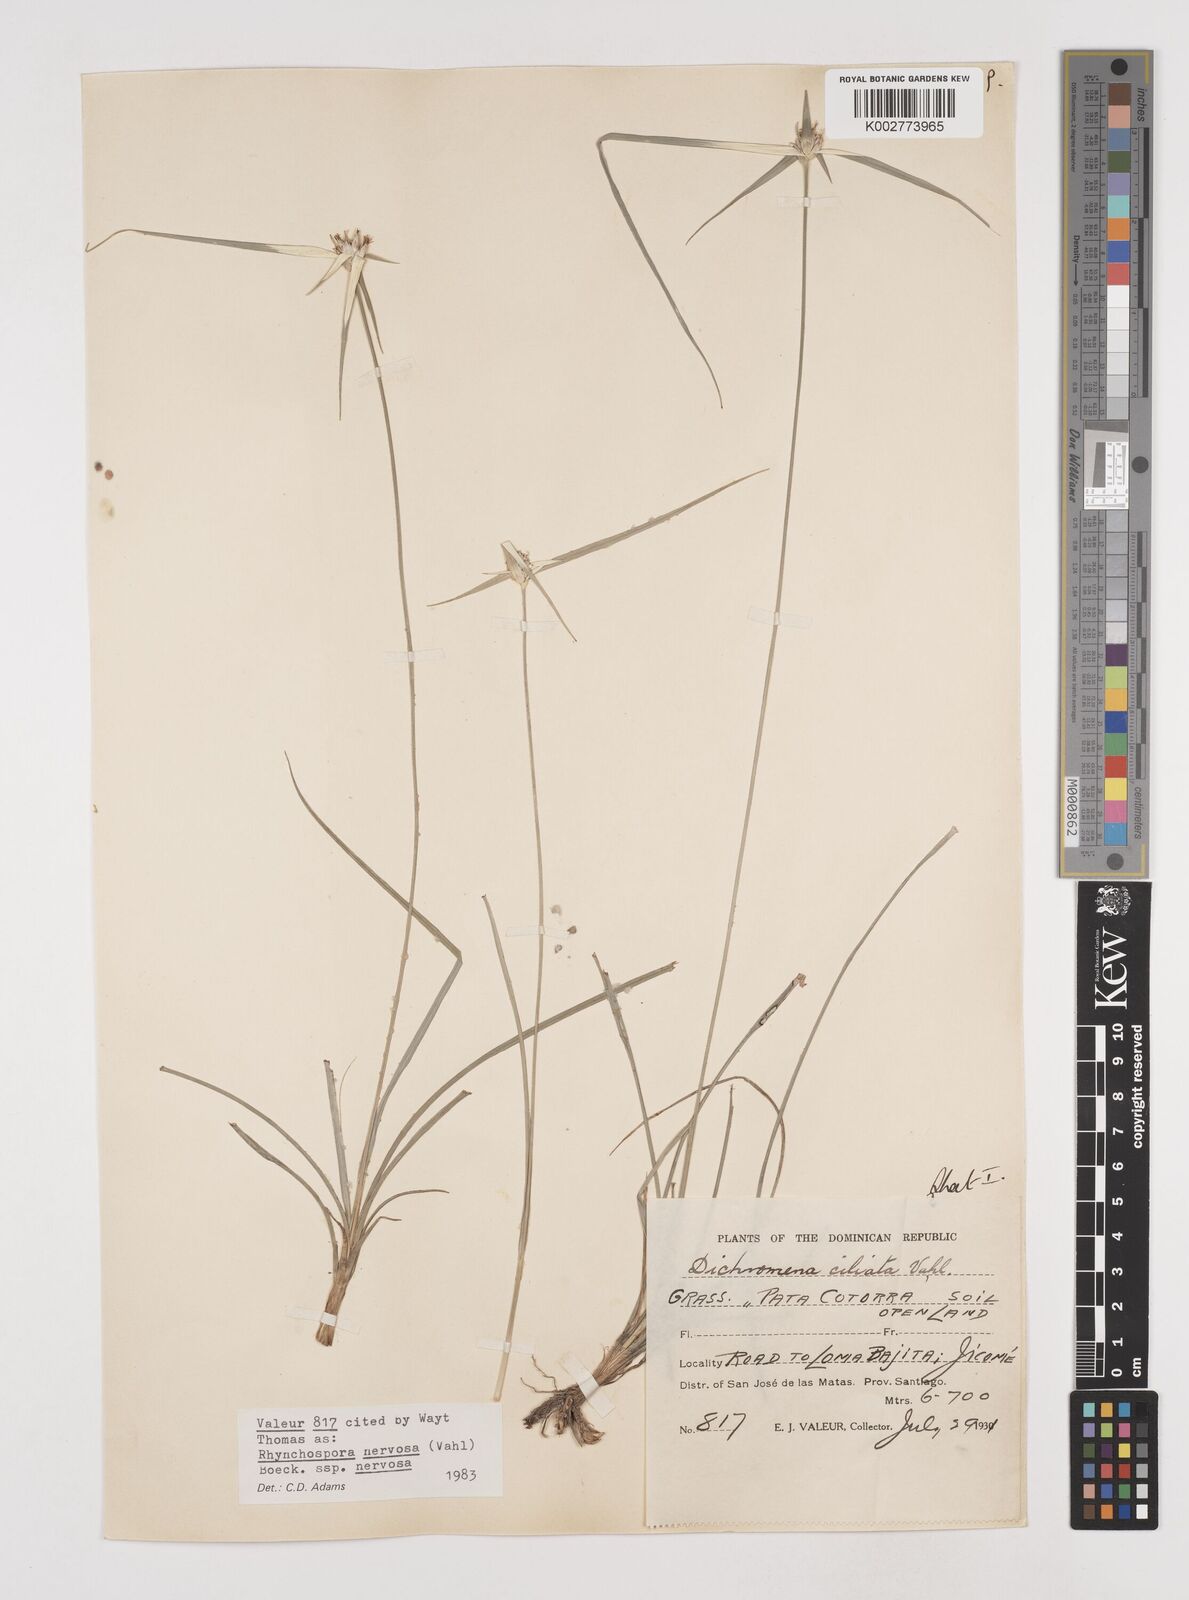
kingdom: Plantae
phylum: Tracheophyta
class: Liliopsida
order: Poales
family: Cyperaceae
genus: Rhynchospora
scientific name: Rhynchospora nervosa
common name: Star sedge
